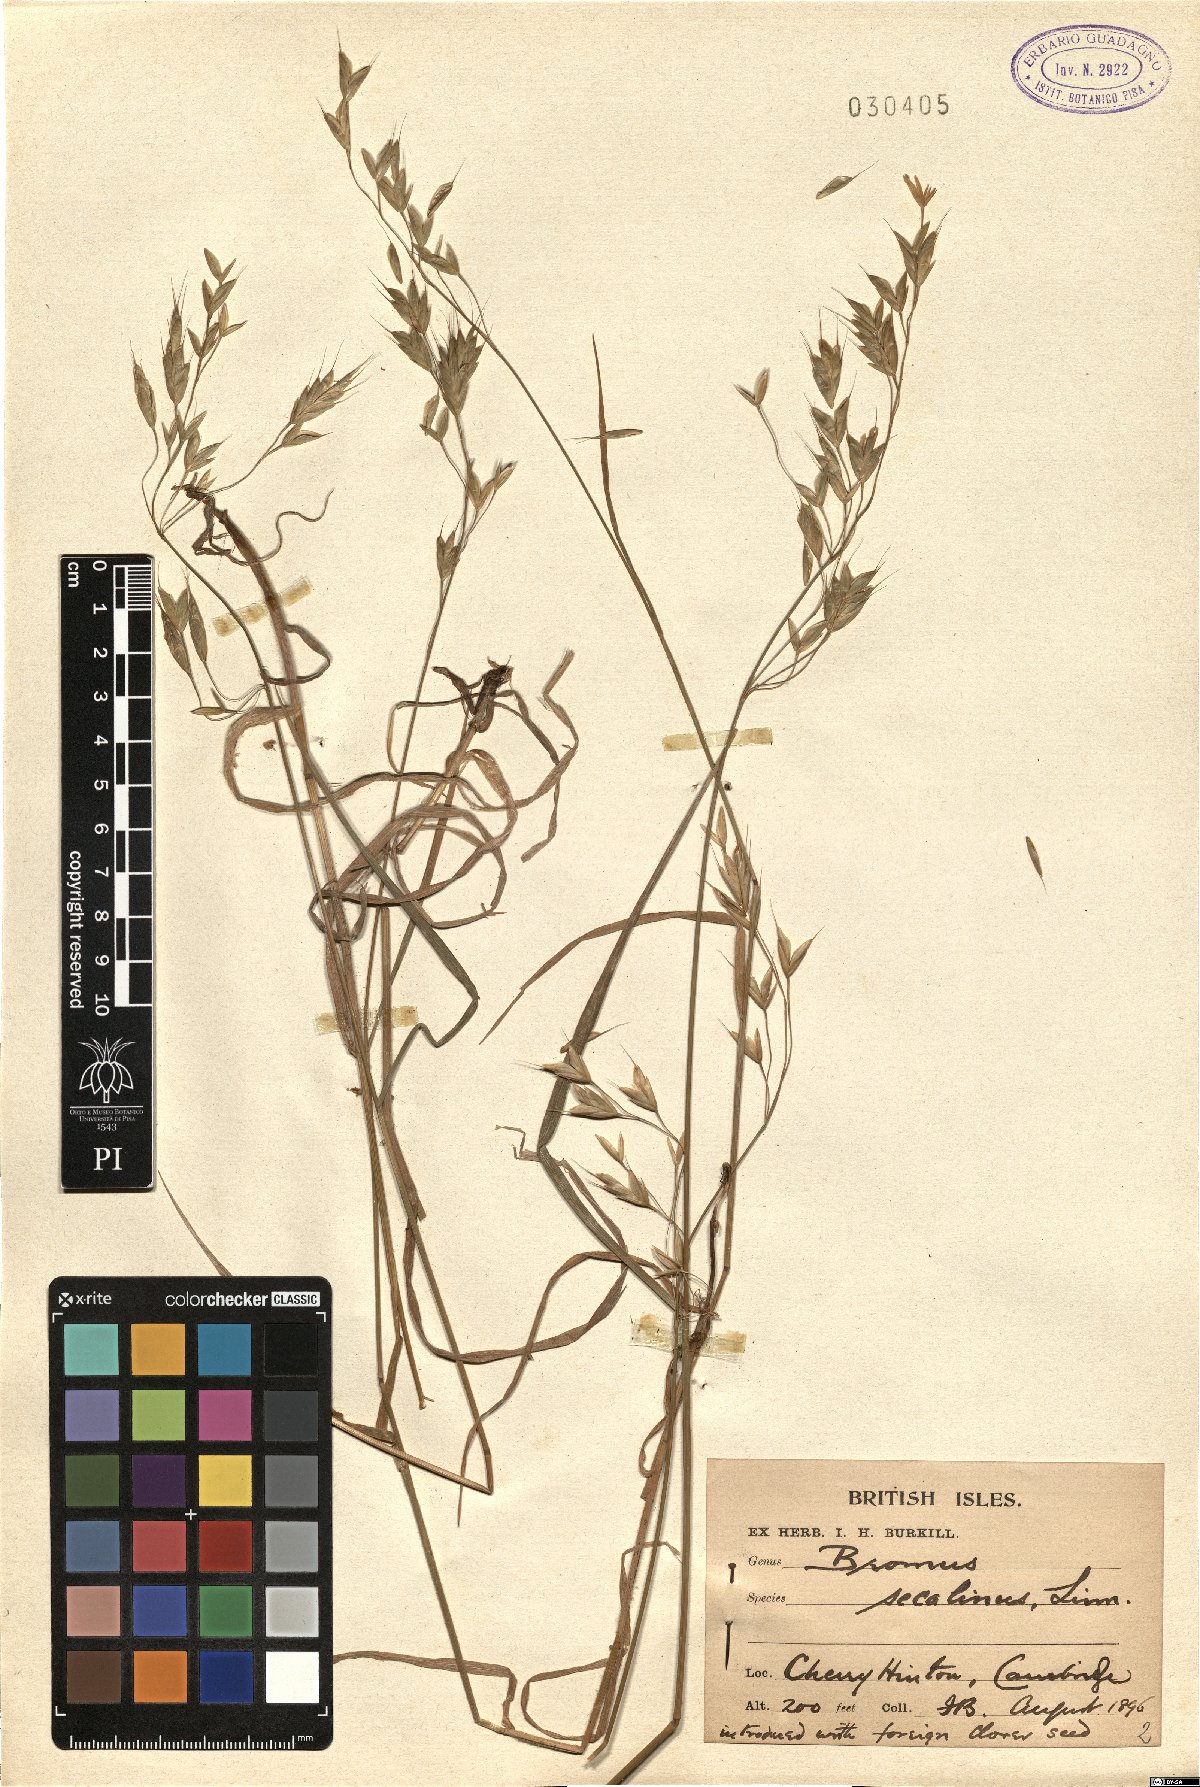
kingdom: Plantae
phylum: Tracheophyta
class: Liliopsida
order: Poales
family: Poaceae
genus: Bromus
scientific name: Bromus secalinus
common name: Rye brome
